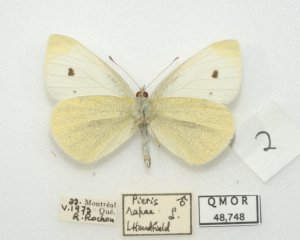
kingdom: Animalia
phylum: Arthropoda
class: Insecta
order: Lepidoptera
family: Pieridae
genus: Pieris
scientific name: Pieris rapae
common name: Cabbage White
